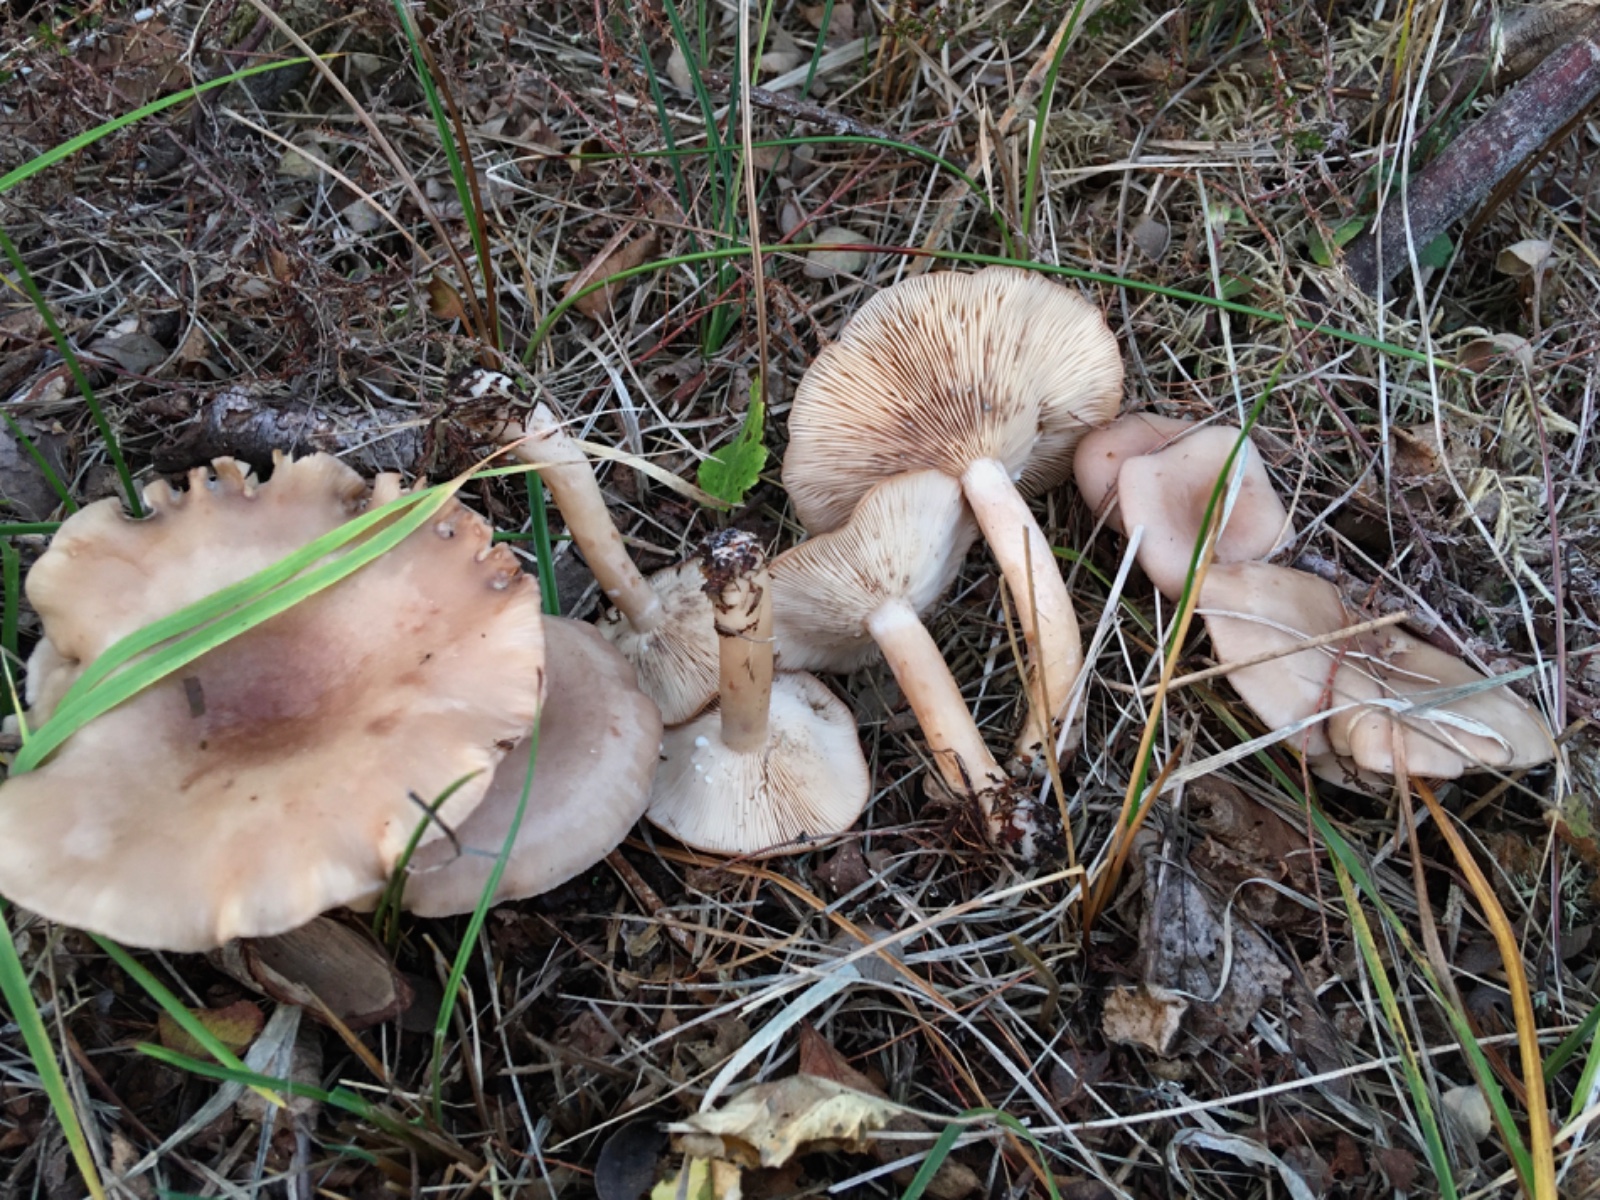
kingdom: Fungi
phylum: Basidiomycota
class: Agaricomycetes
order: Russulales
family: Russulaceae
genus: Lactarius
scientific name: Lactarius vietus
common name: violetgrå mælkehat
